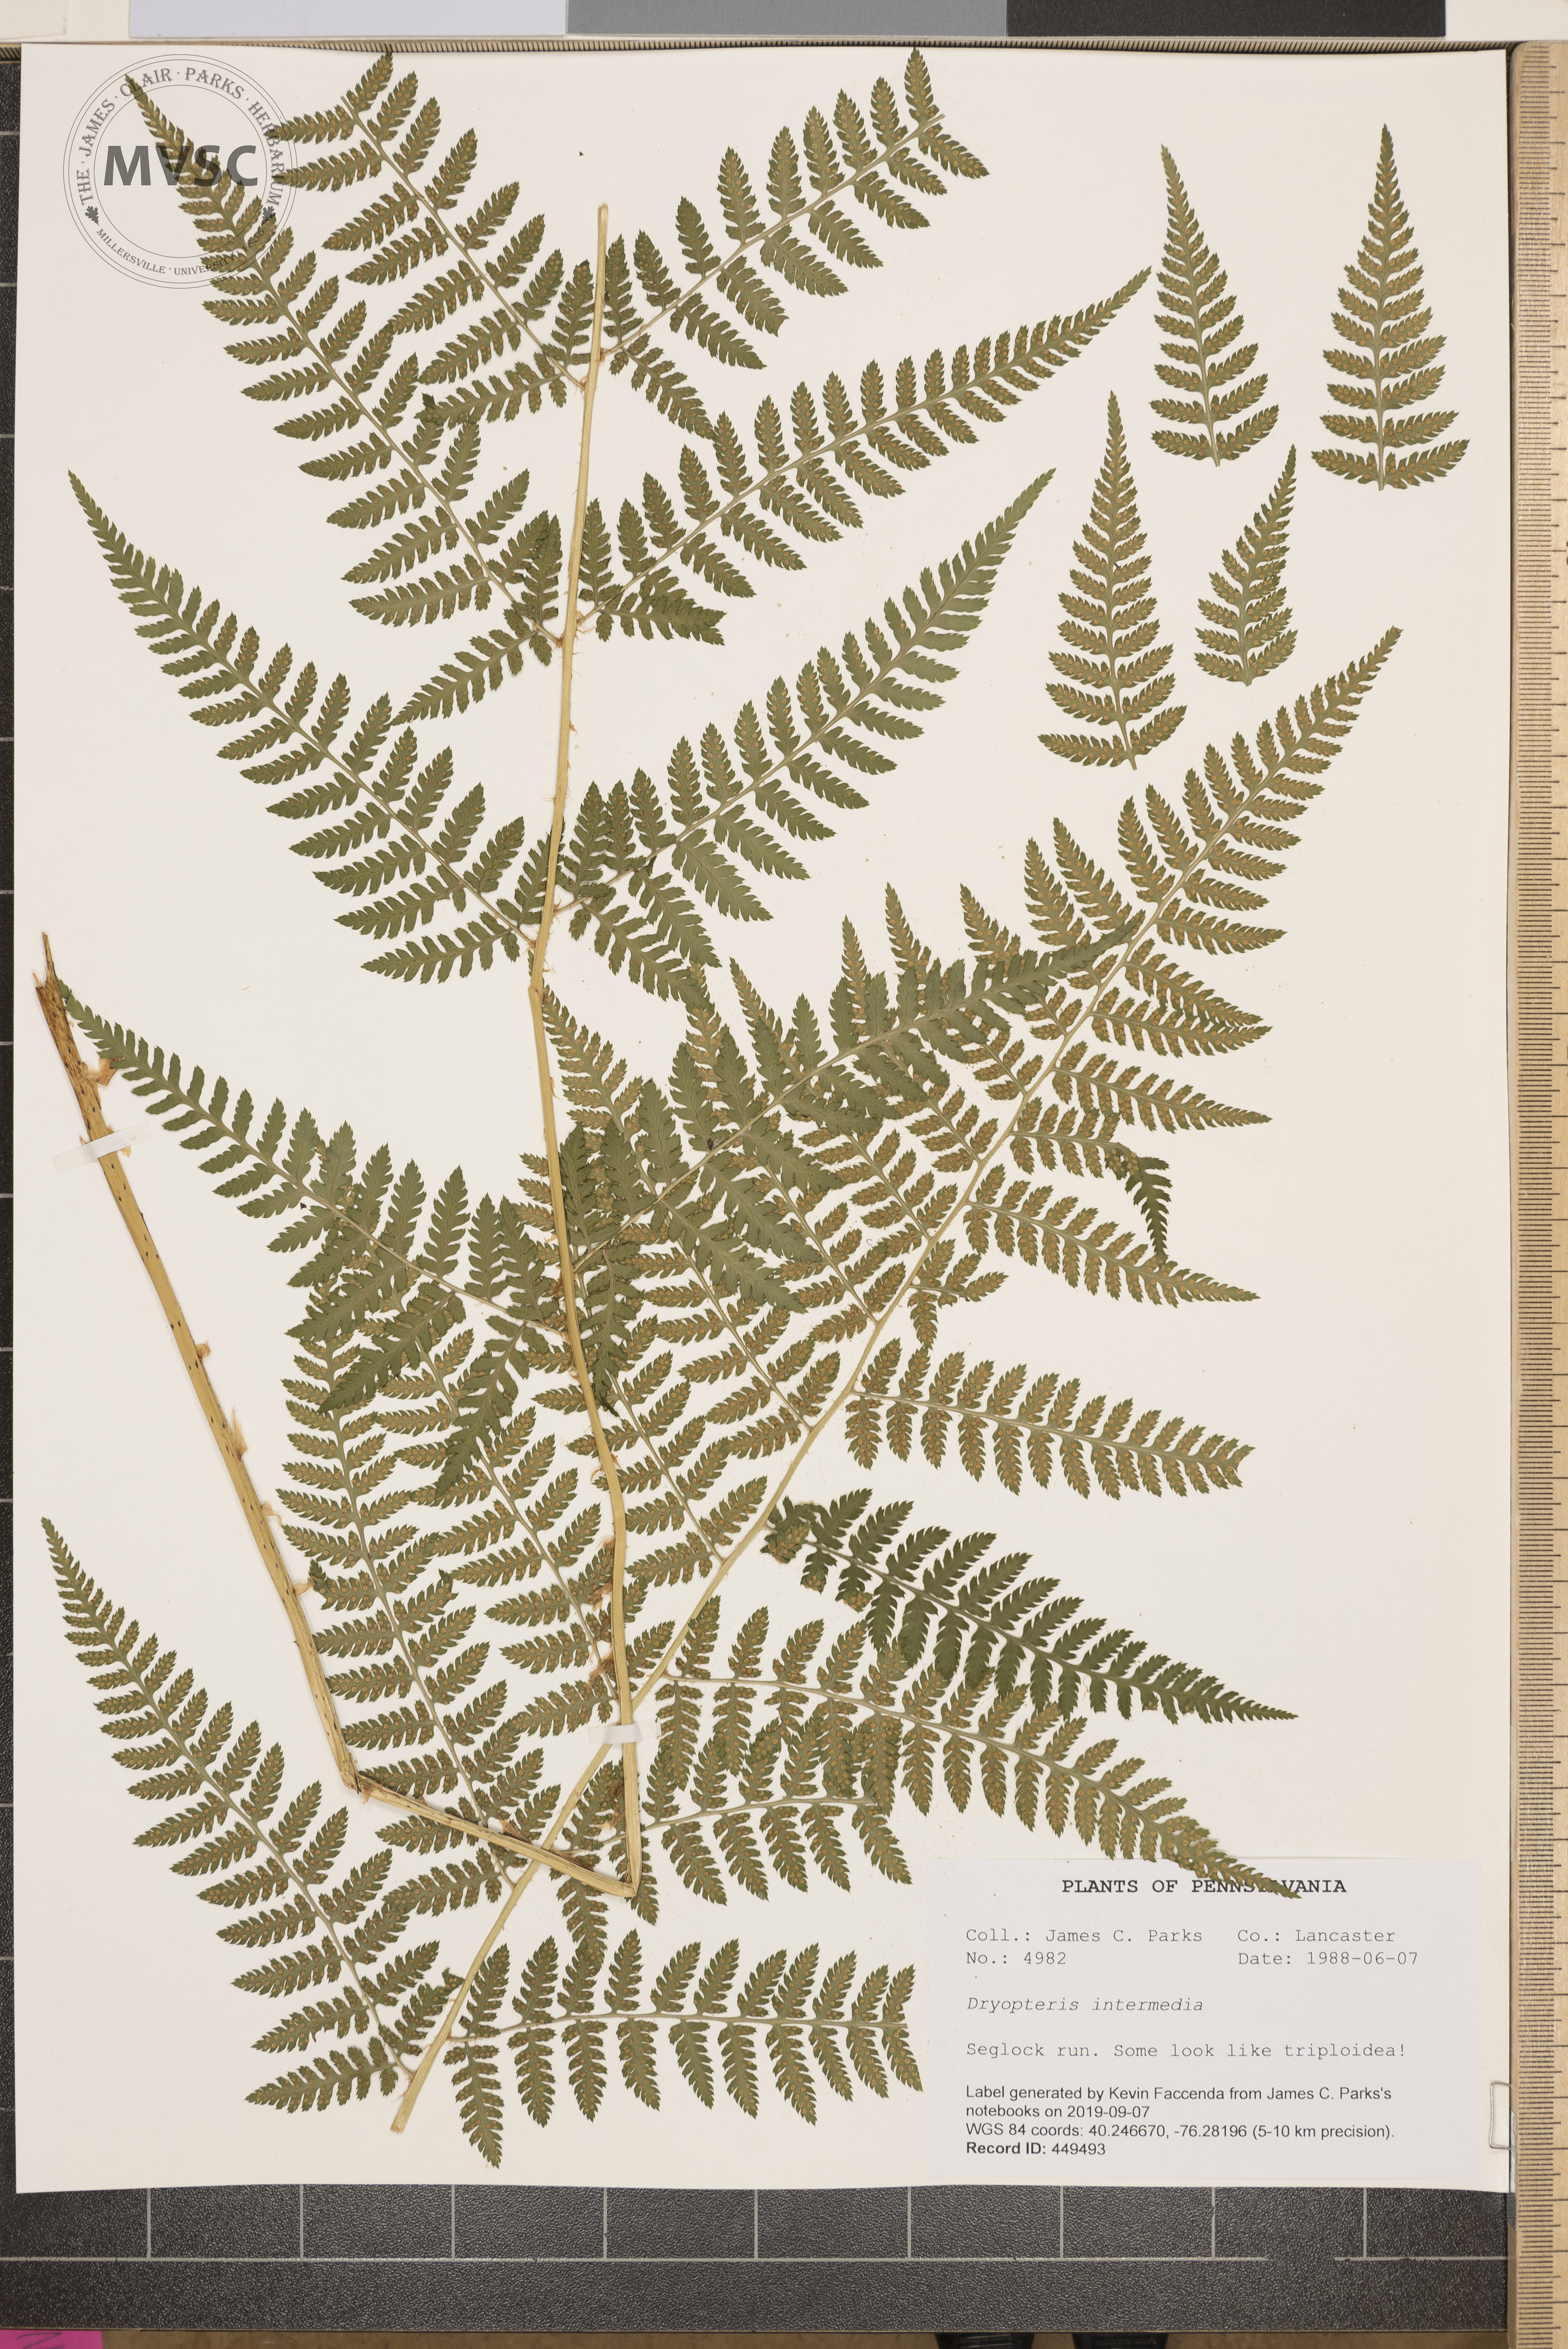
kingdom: Plantae
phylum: Tracheophyta
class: Polypodiopsida
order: Polypodiales
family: Dryopteridaceae
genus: Dryopteris
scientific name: Dryopteris intermedia
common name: Evergreen wood fern
